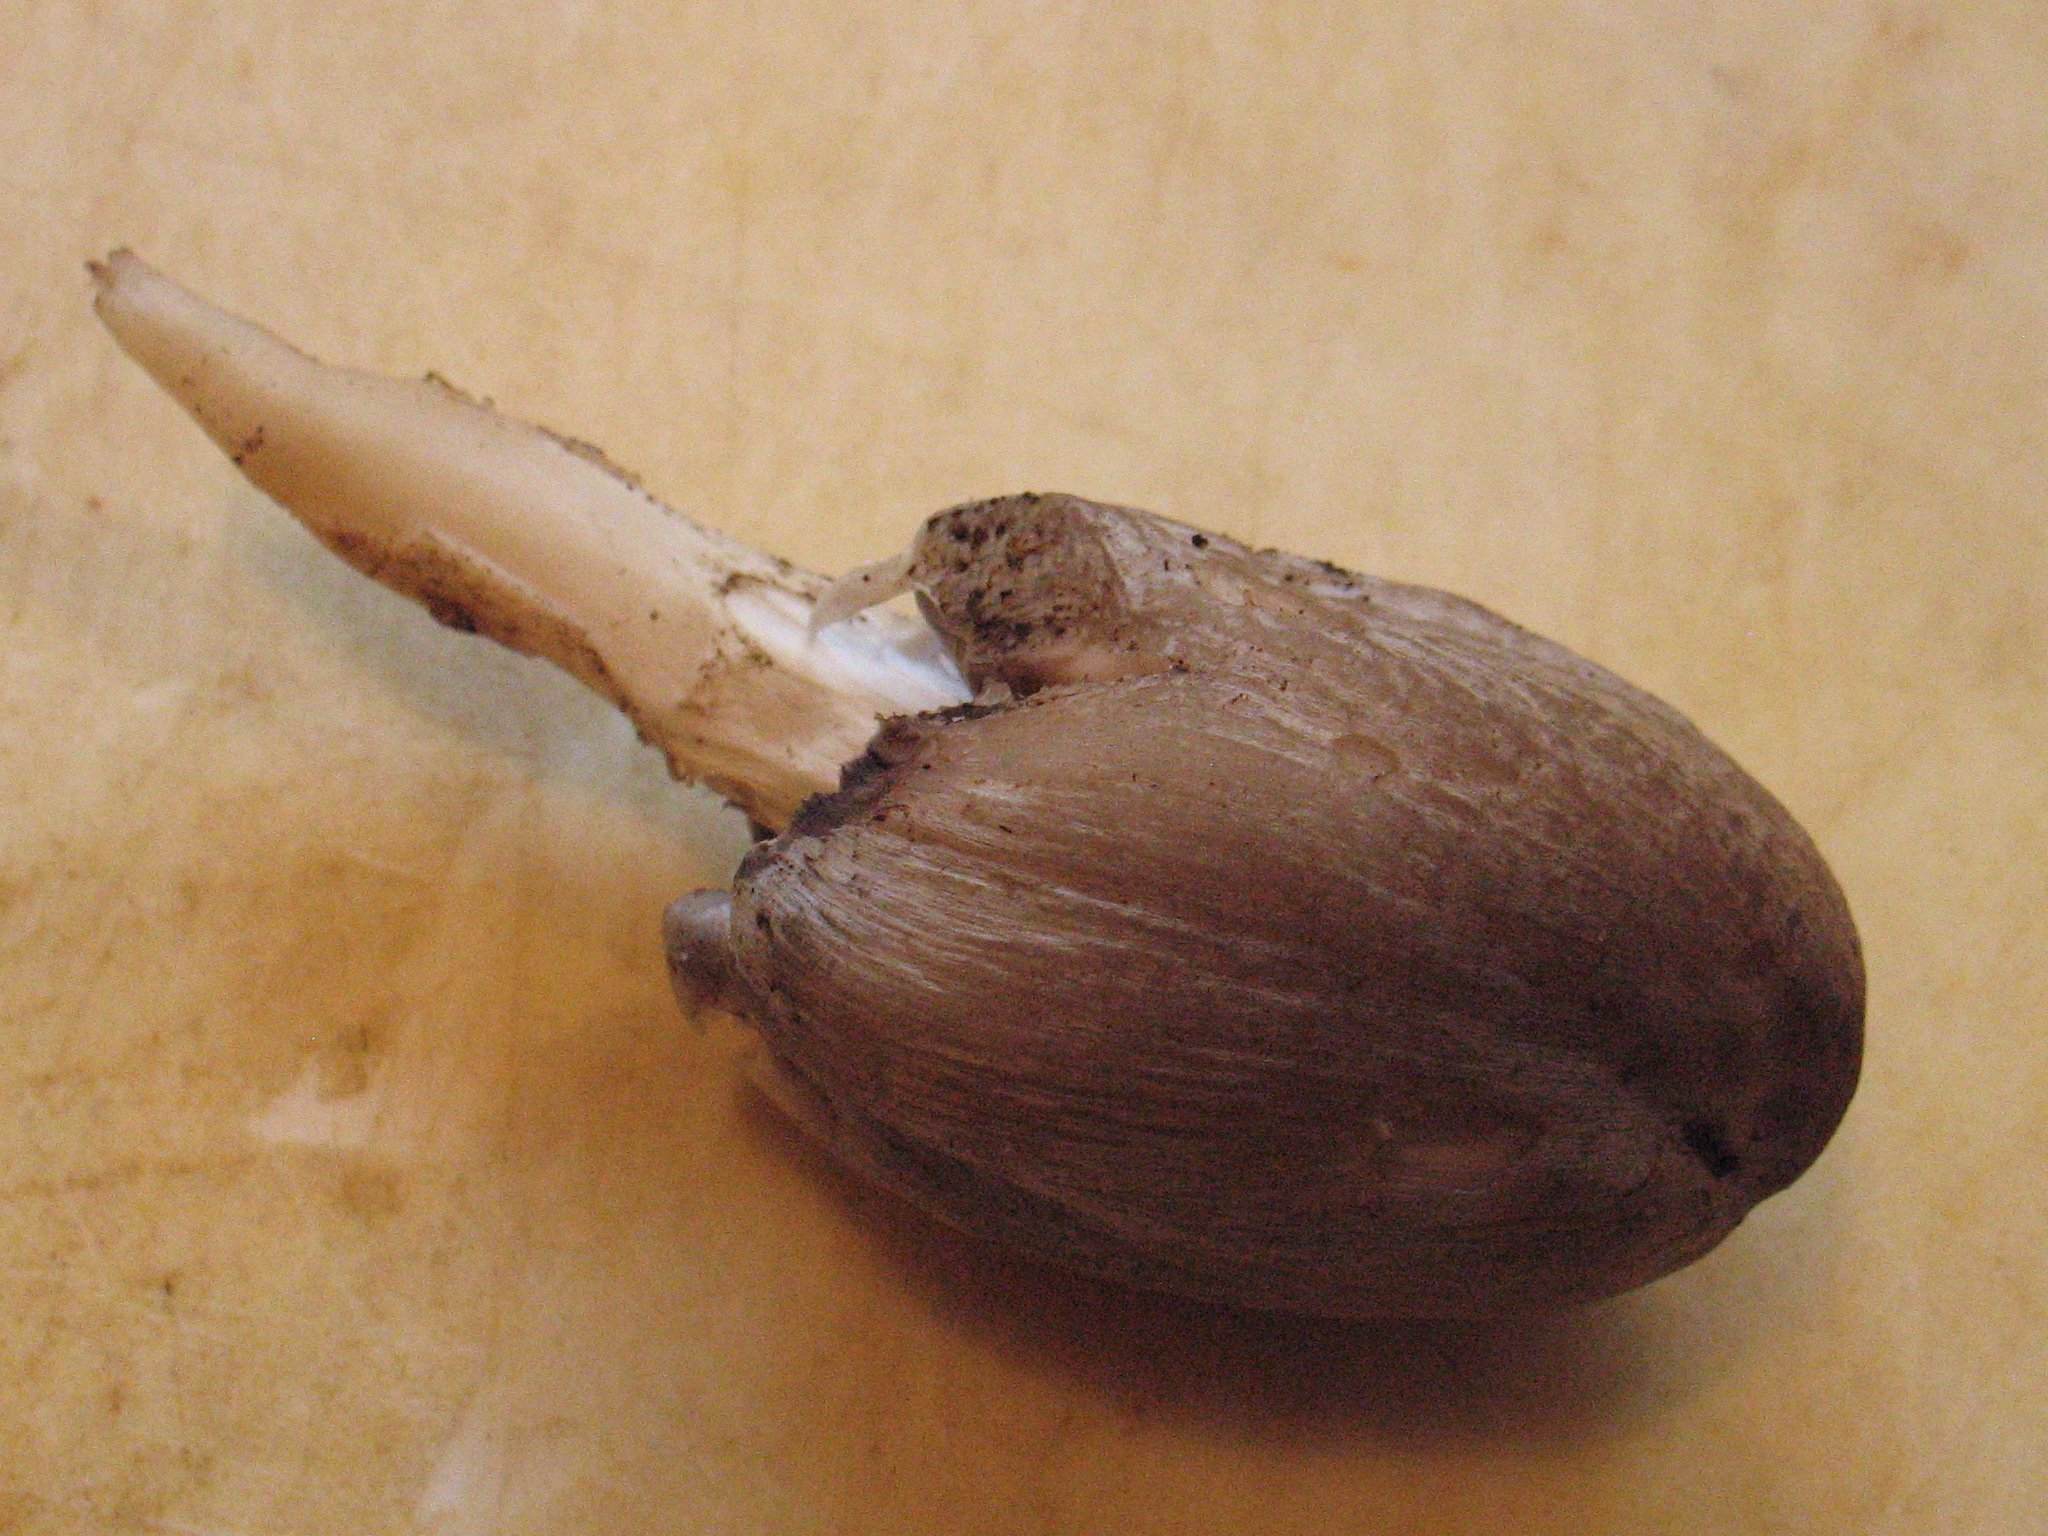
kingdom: Fungi
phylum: Basidiomycota
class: Agaricomycetes
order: Agaricales
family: Psathyrellaceae
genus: Coprinopsis
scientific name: Coprinopsis atramentaria
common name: almindelig blækhat
